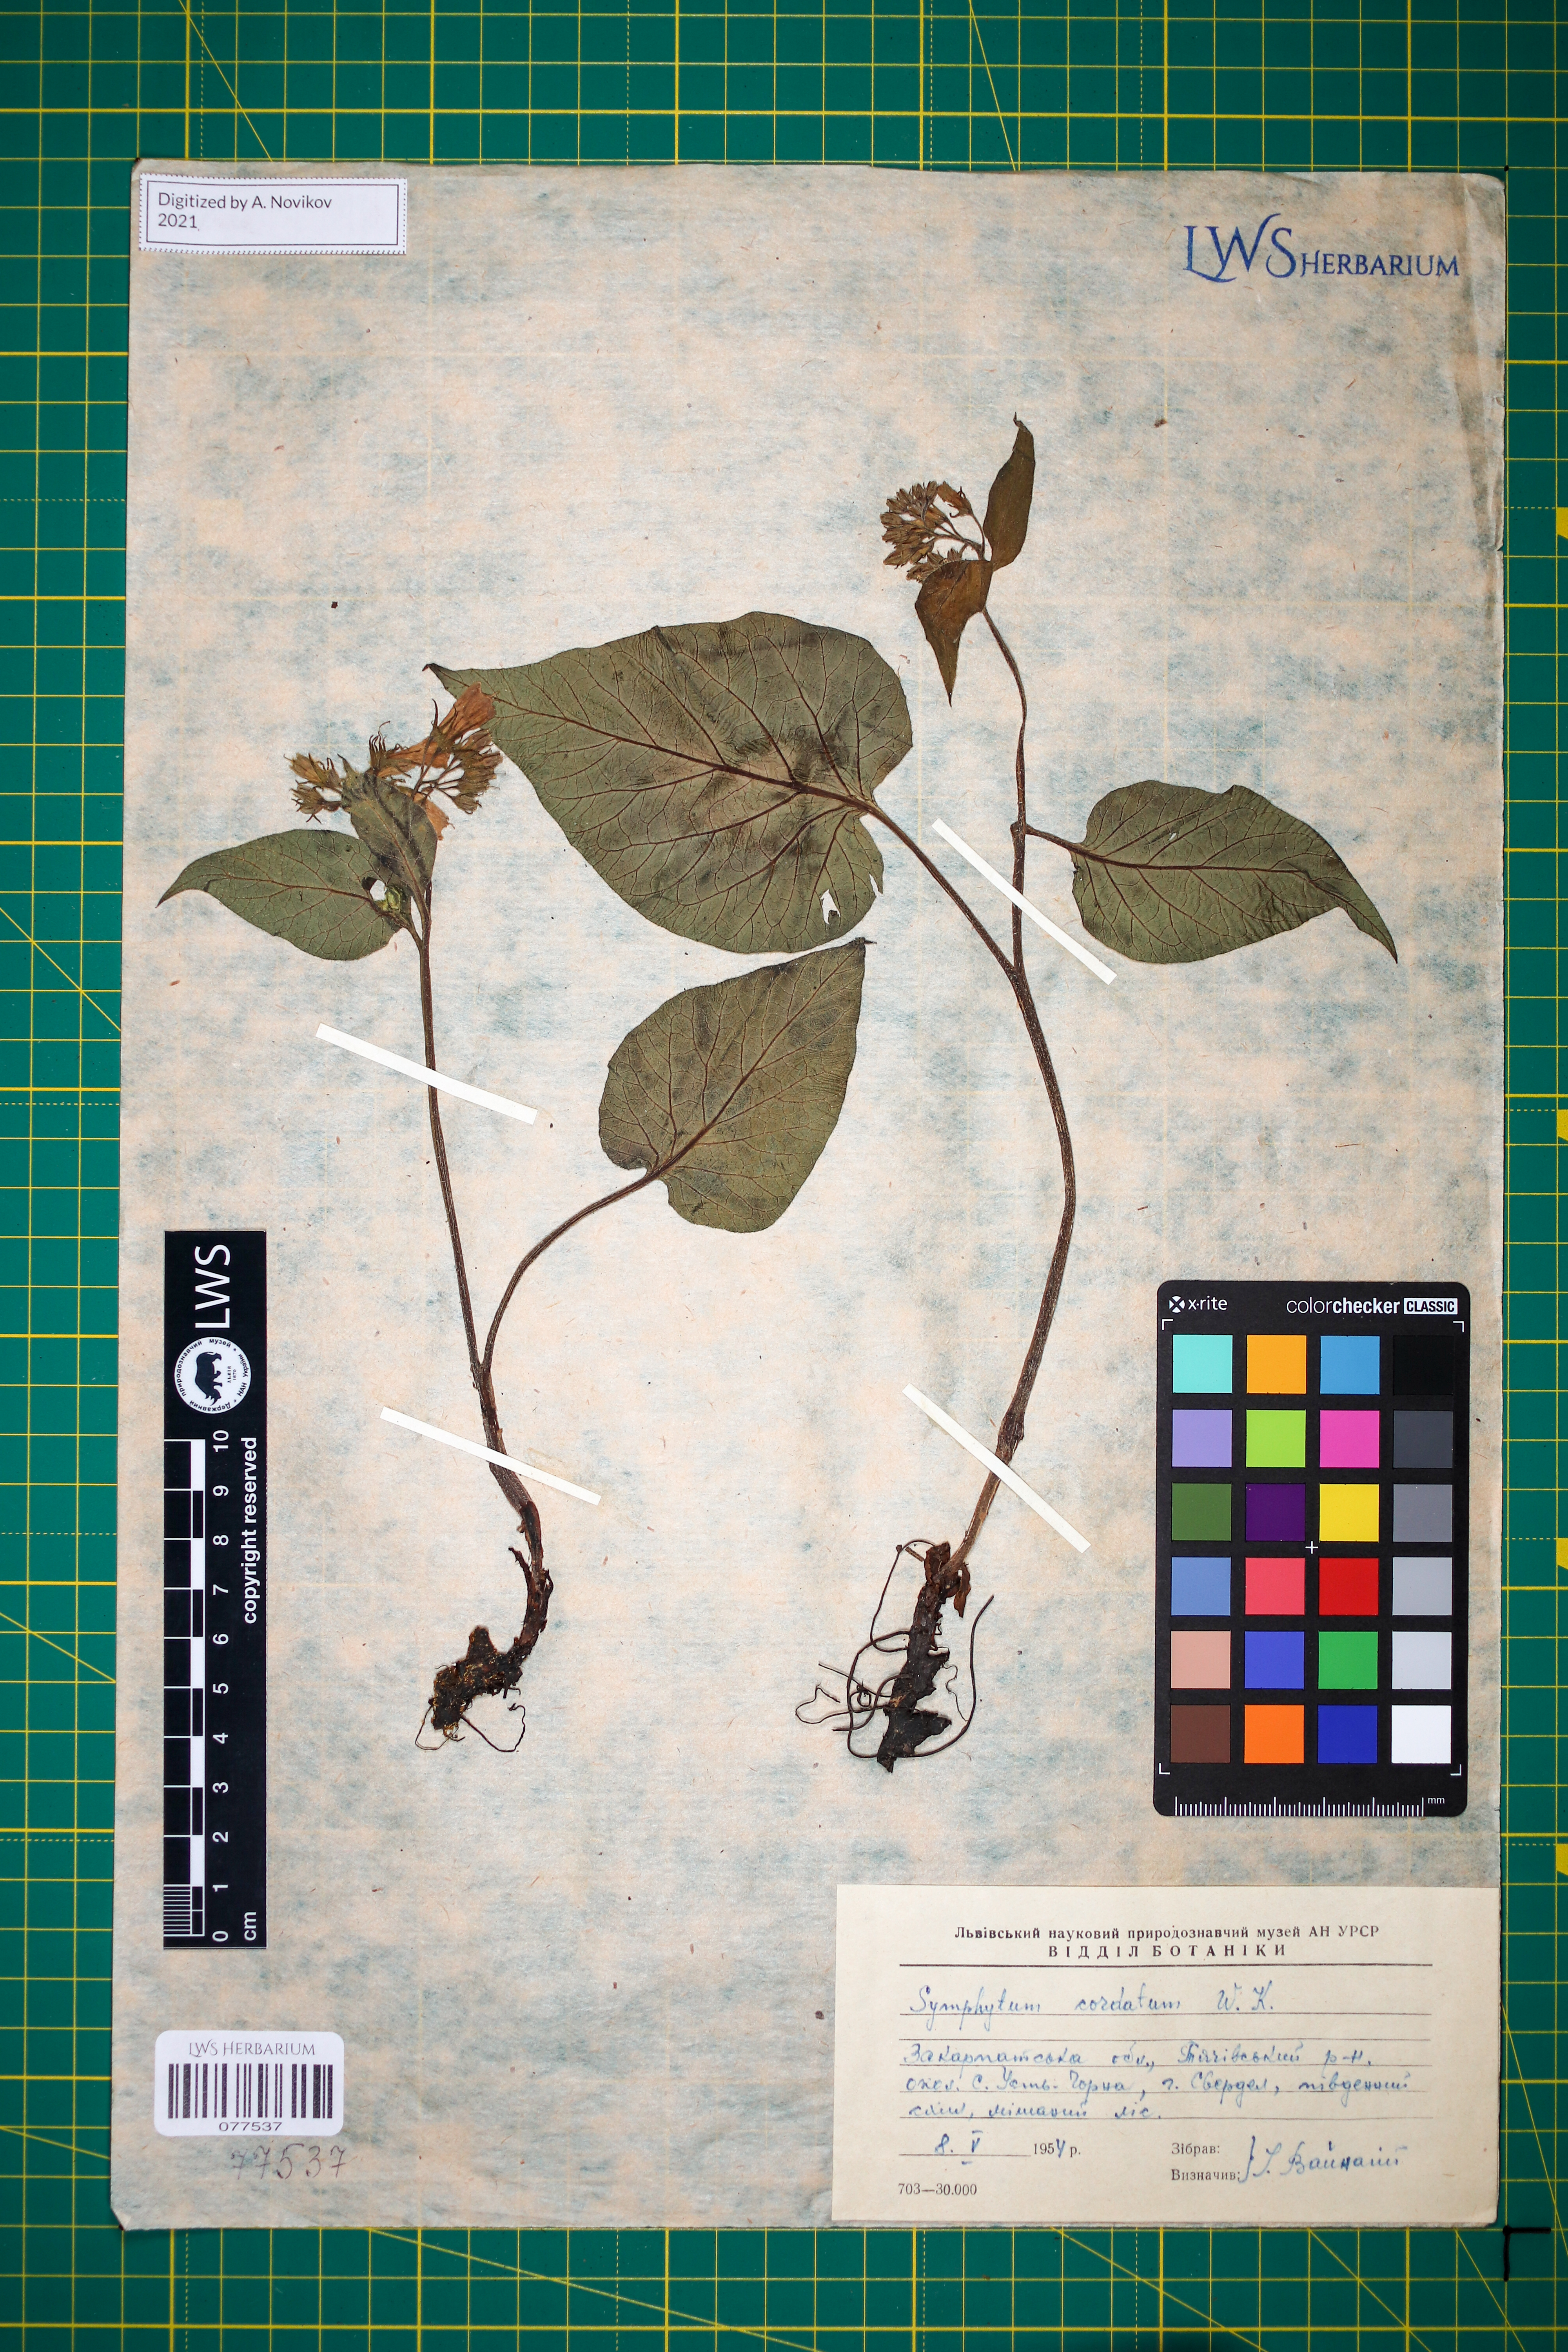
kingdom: Plantae
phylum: Tracheophyta
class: Magnoliopsida
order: Boraginales
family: Boraginaceae
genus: Symphytum
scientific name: Symphytum cordatum
